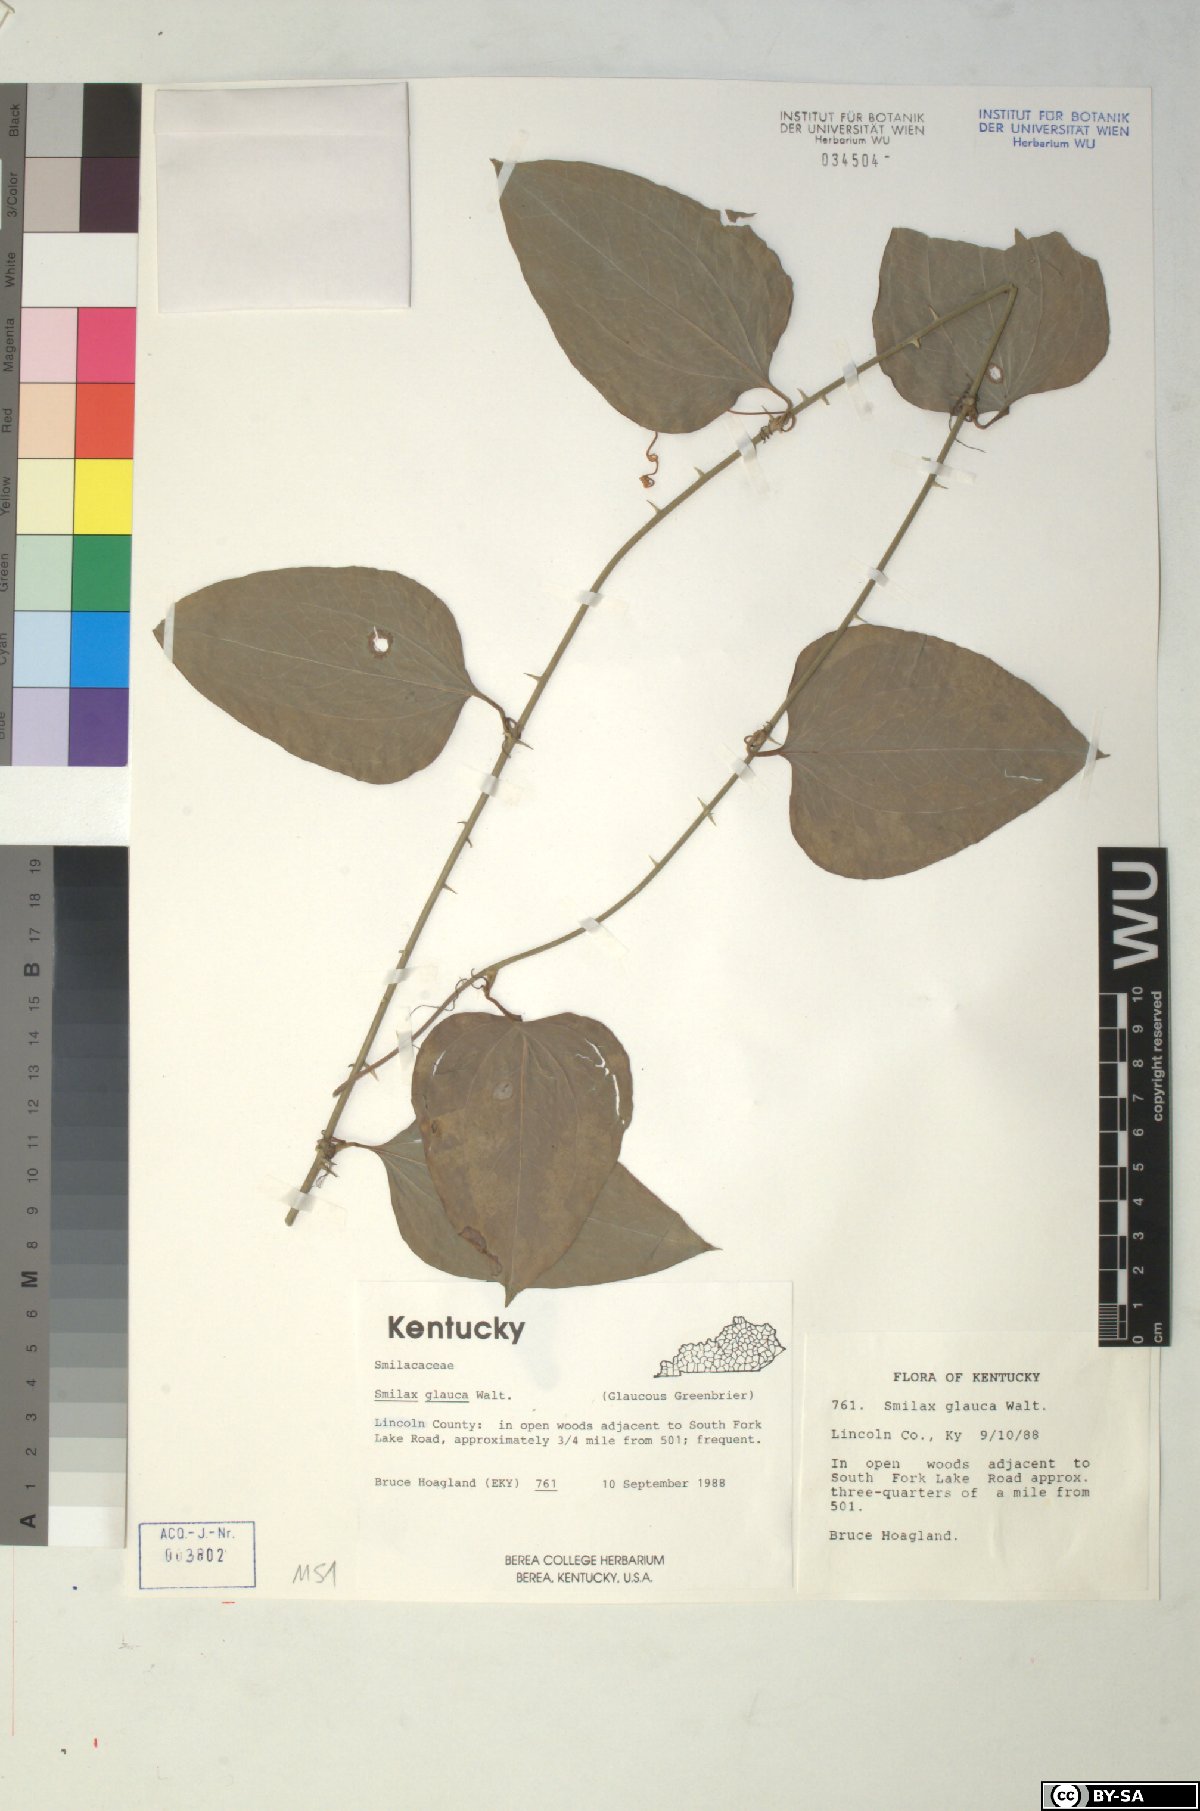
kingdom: Plantae
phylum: Tracheophyta
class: Liliopsida
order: Liliales
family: Smilacaceae
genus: Smilax
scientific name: Smilax glauca
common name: Cat greenbrier
